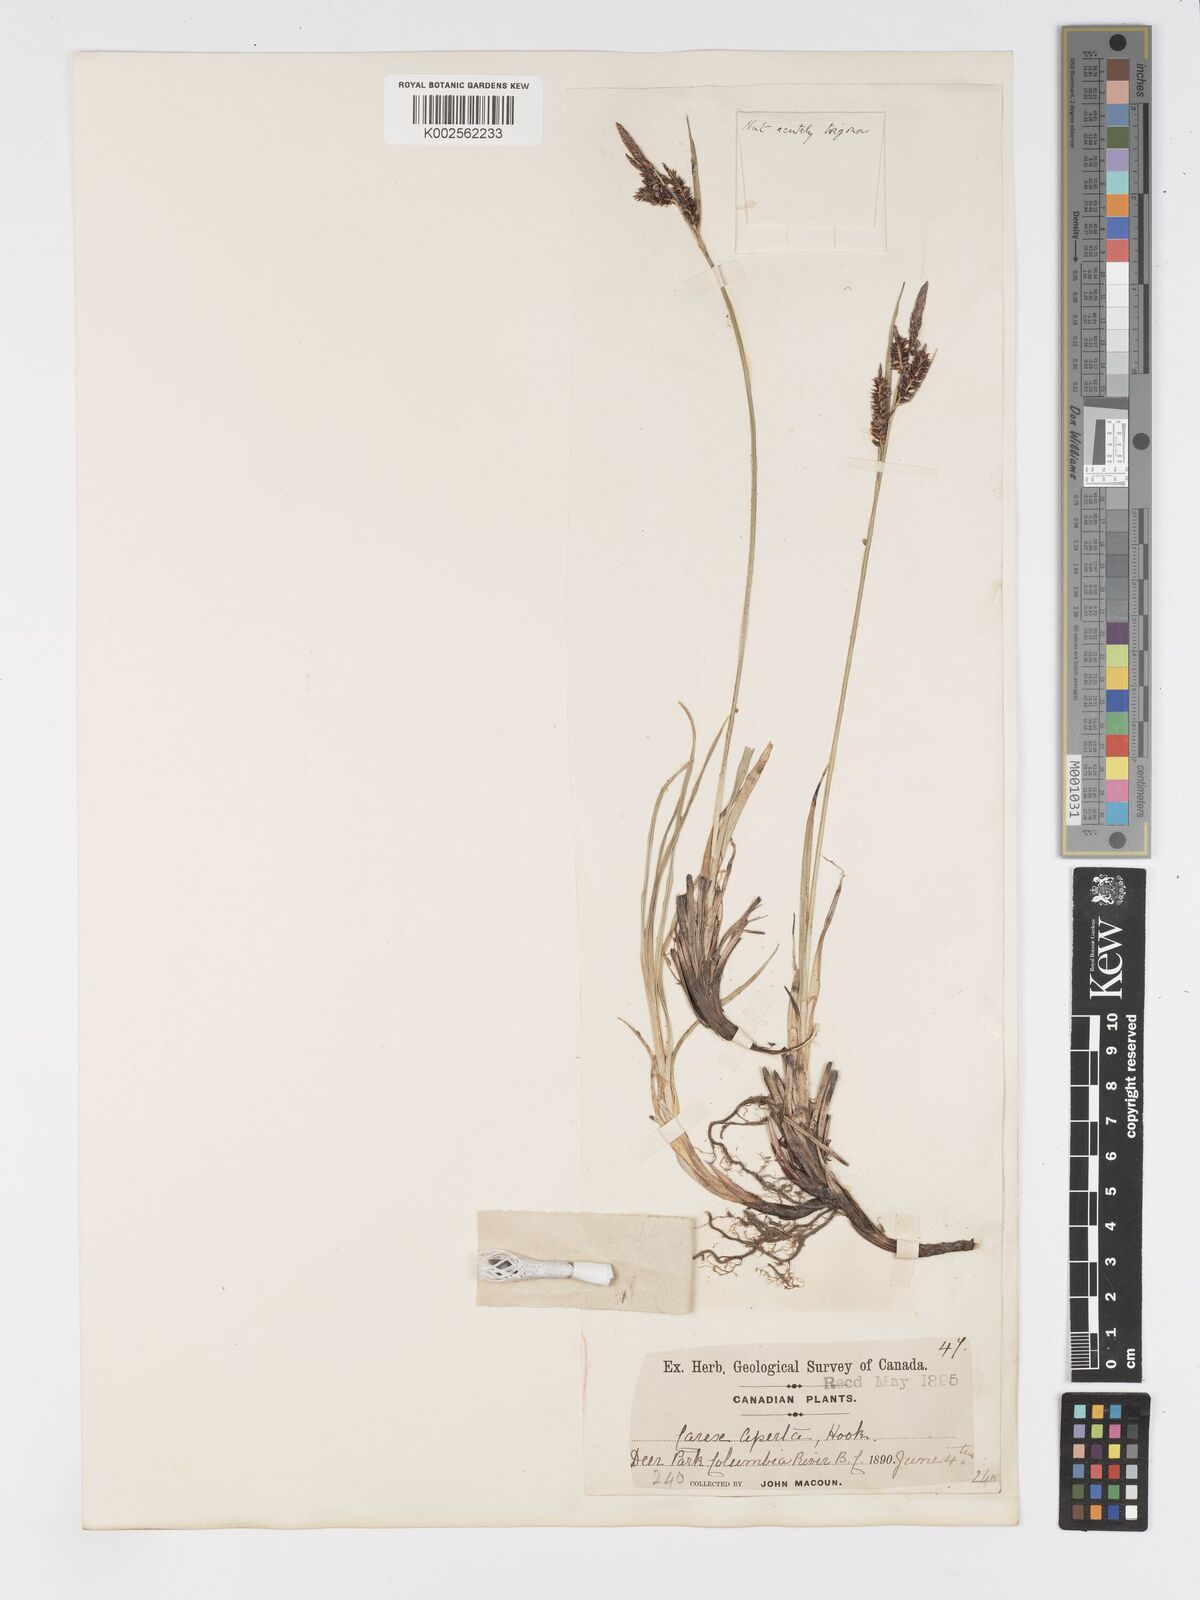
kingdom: Plantae
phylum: Tracheophyta
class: Liliopsida
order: Poales
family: Cyperaceae
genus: Carex
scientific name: Carex nebrascensis
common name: Nebraska sedge
